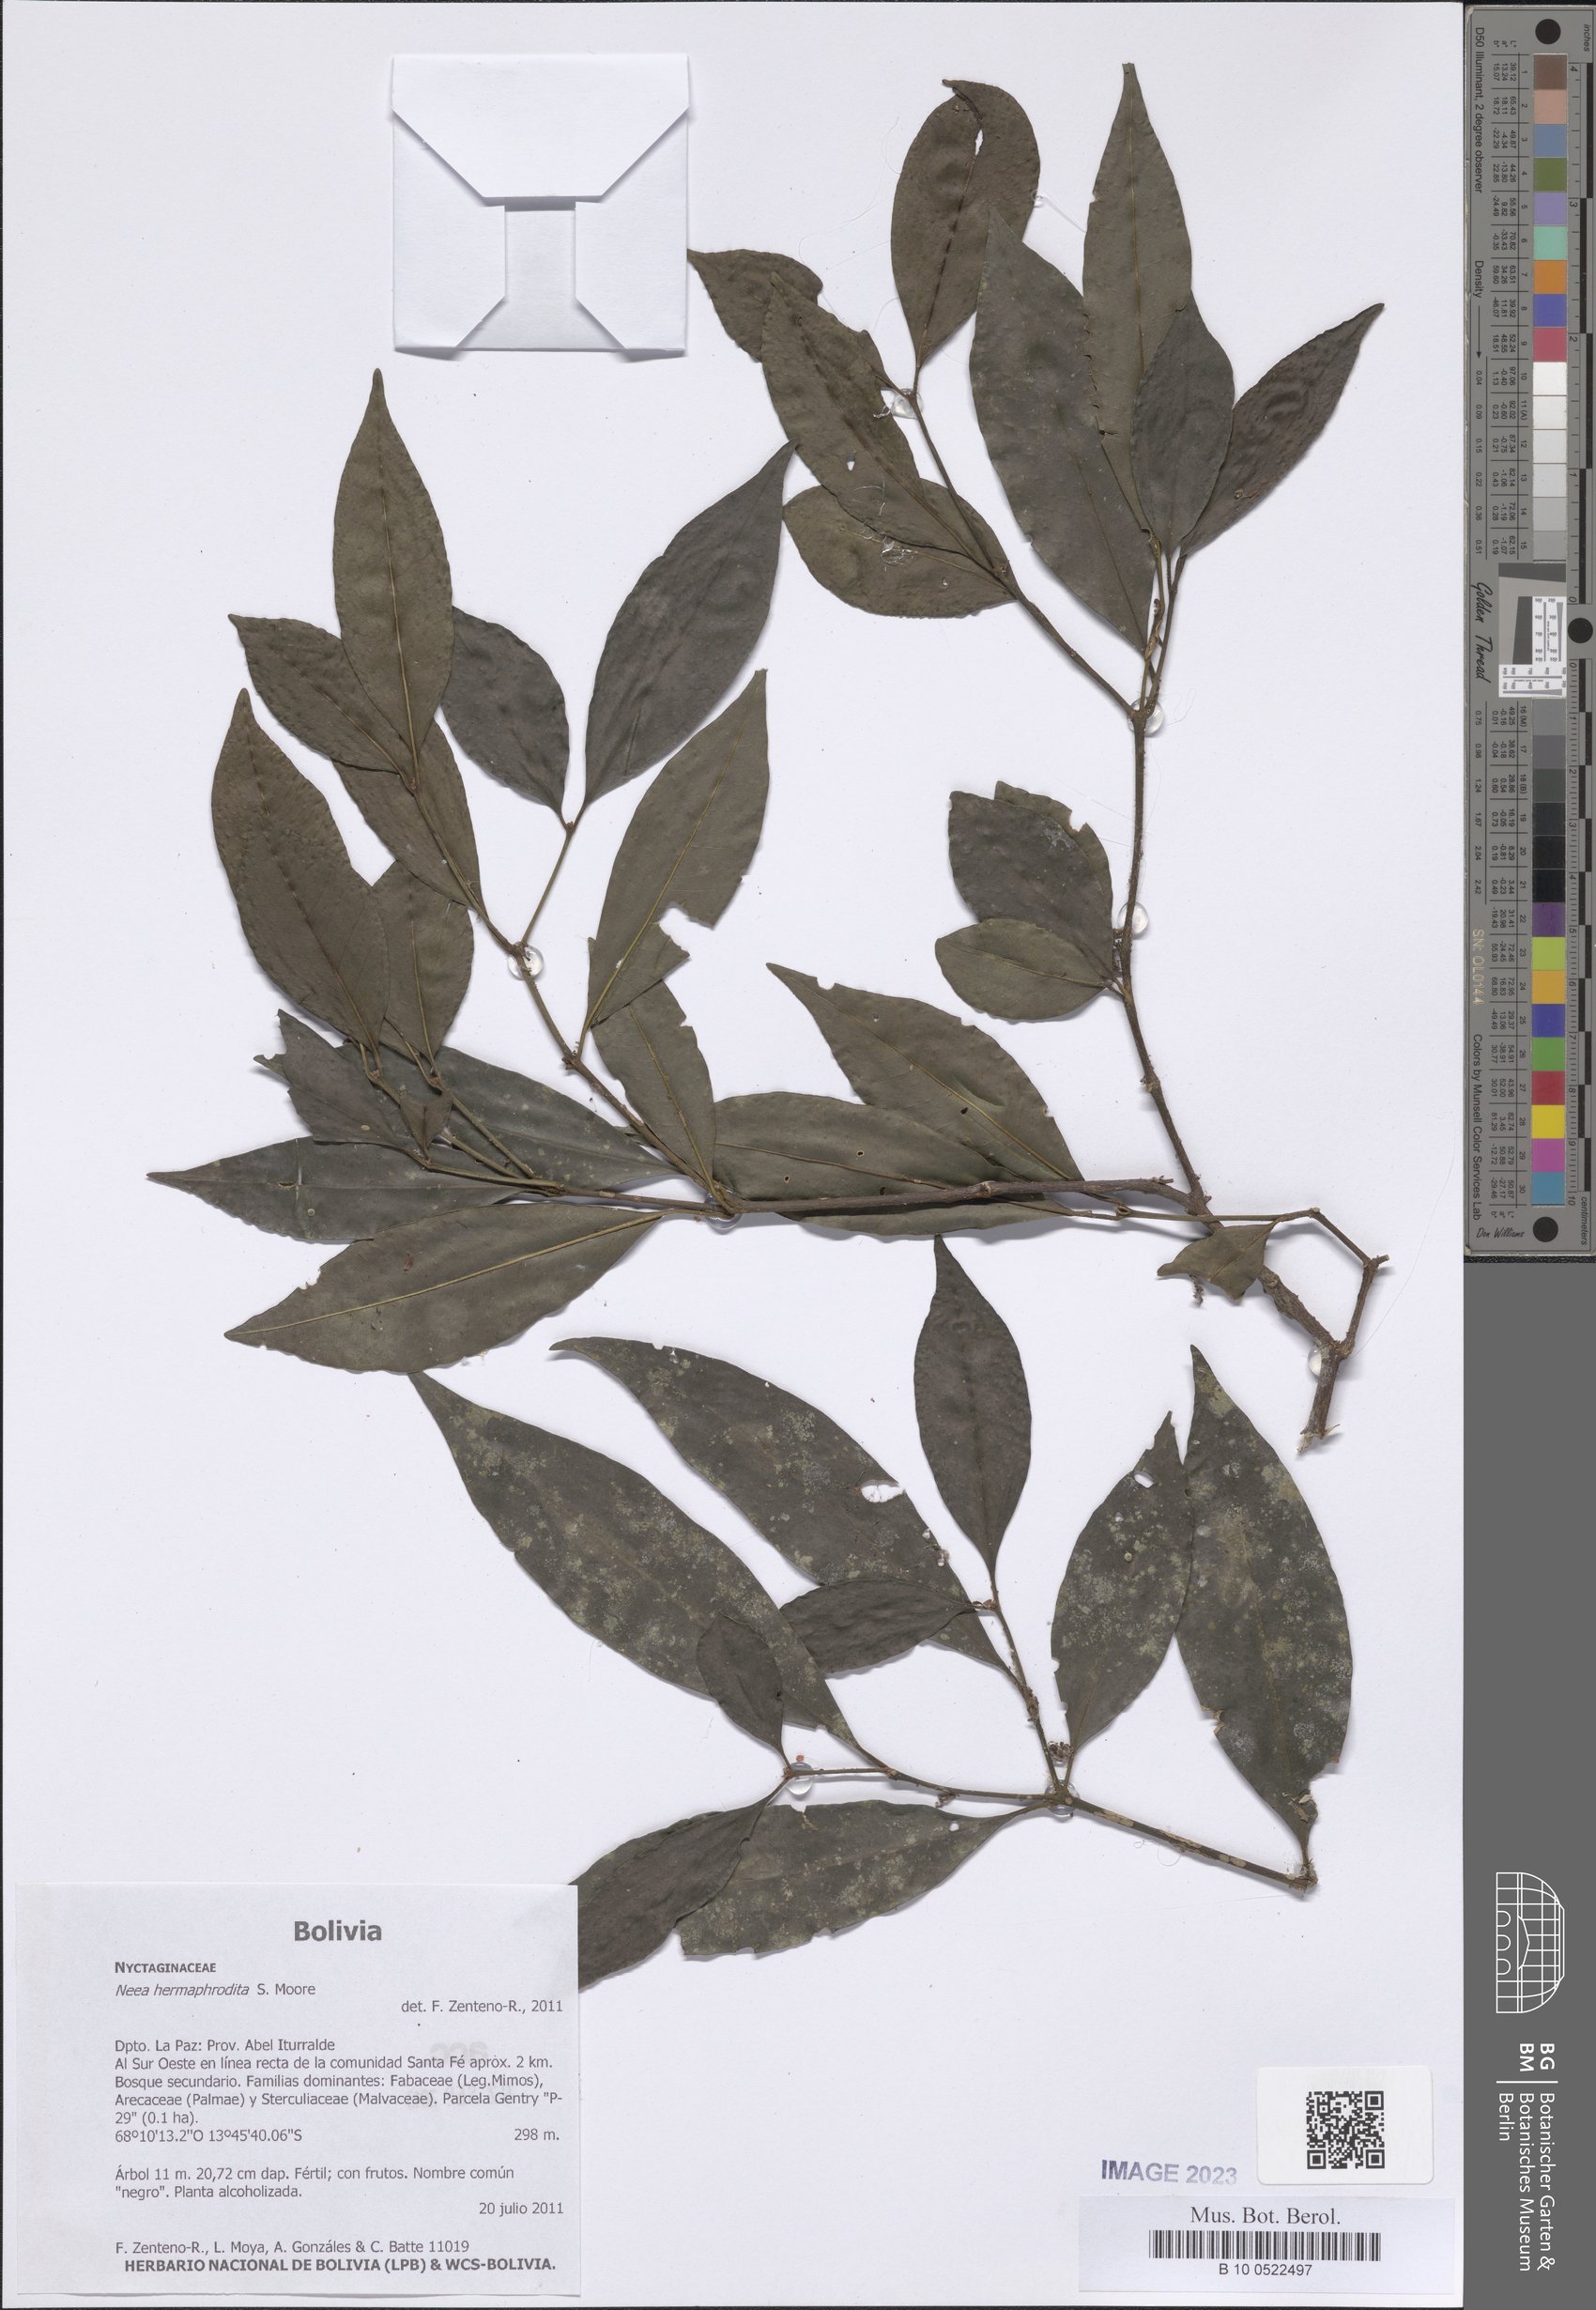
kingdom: Plantae
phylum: Tracheophyta
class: Magnoliopsida
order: Caryophyllales
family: Nyctaginaceae
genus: Neea
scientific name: Neea hermaphrodita
